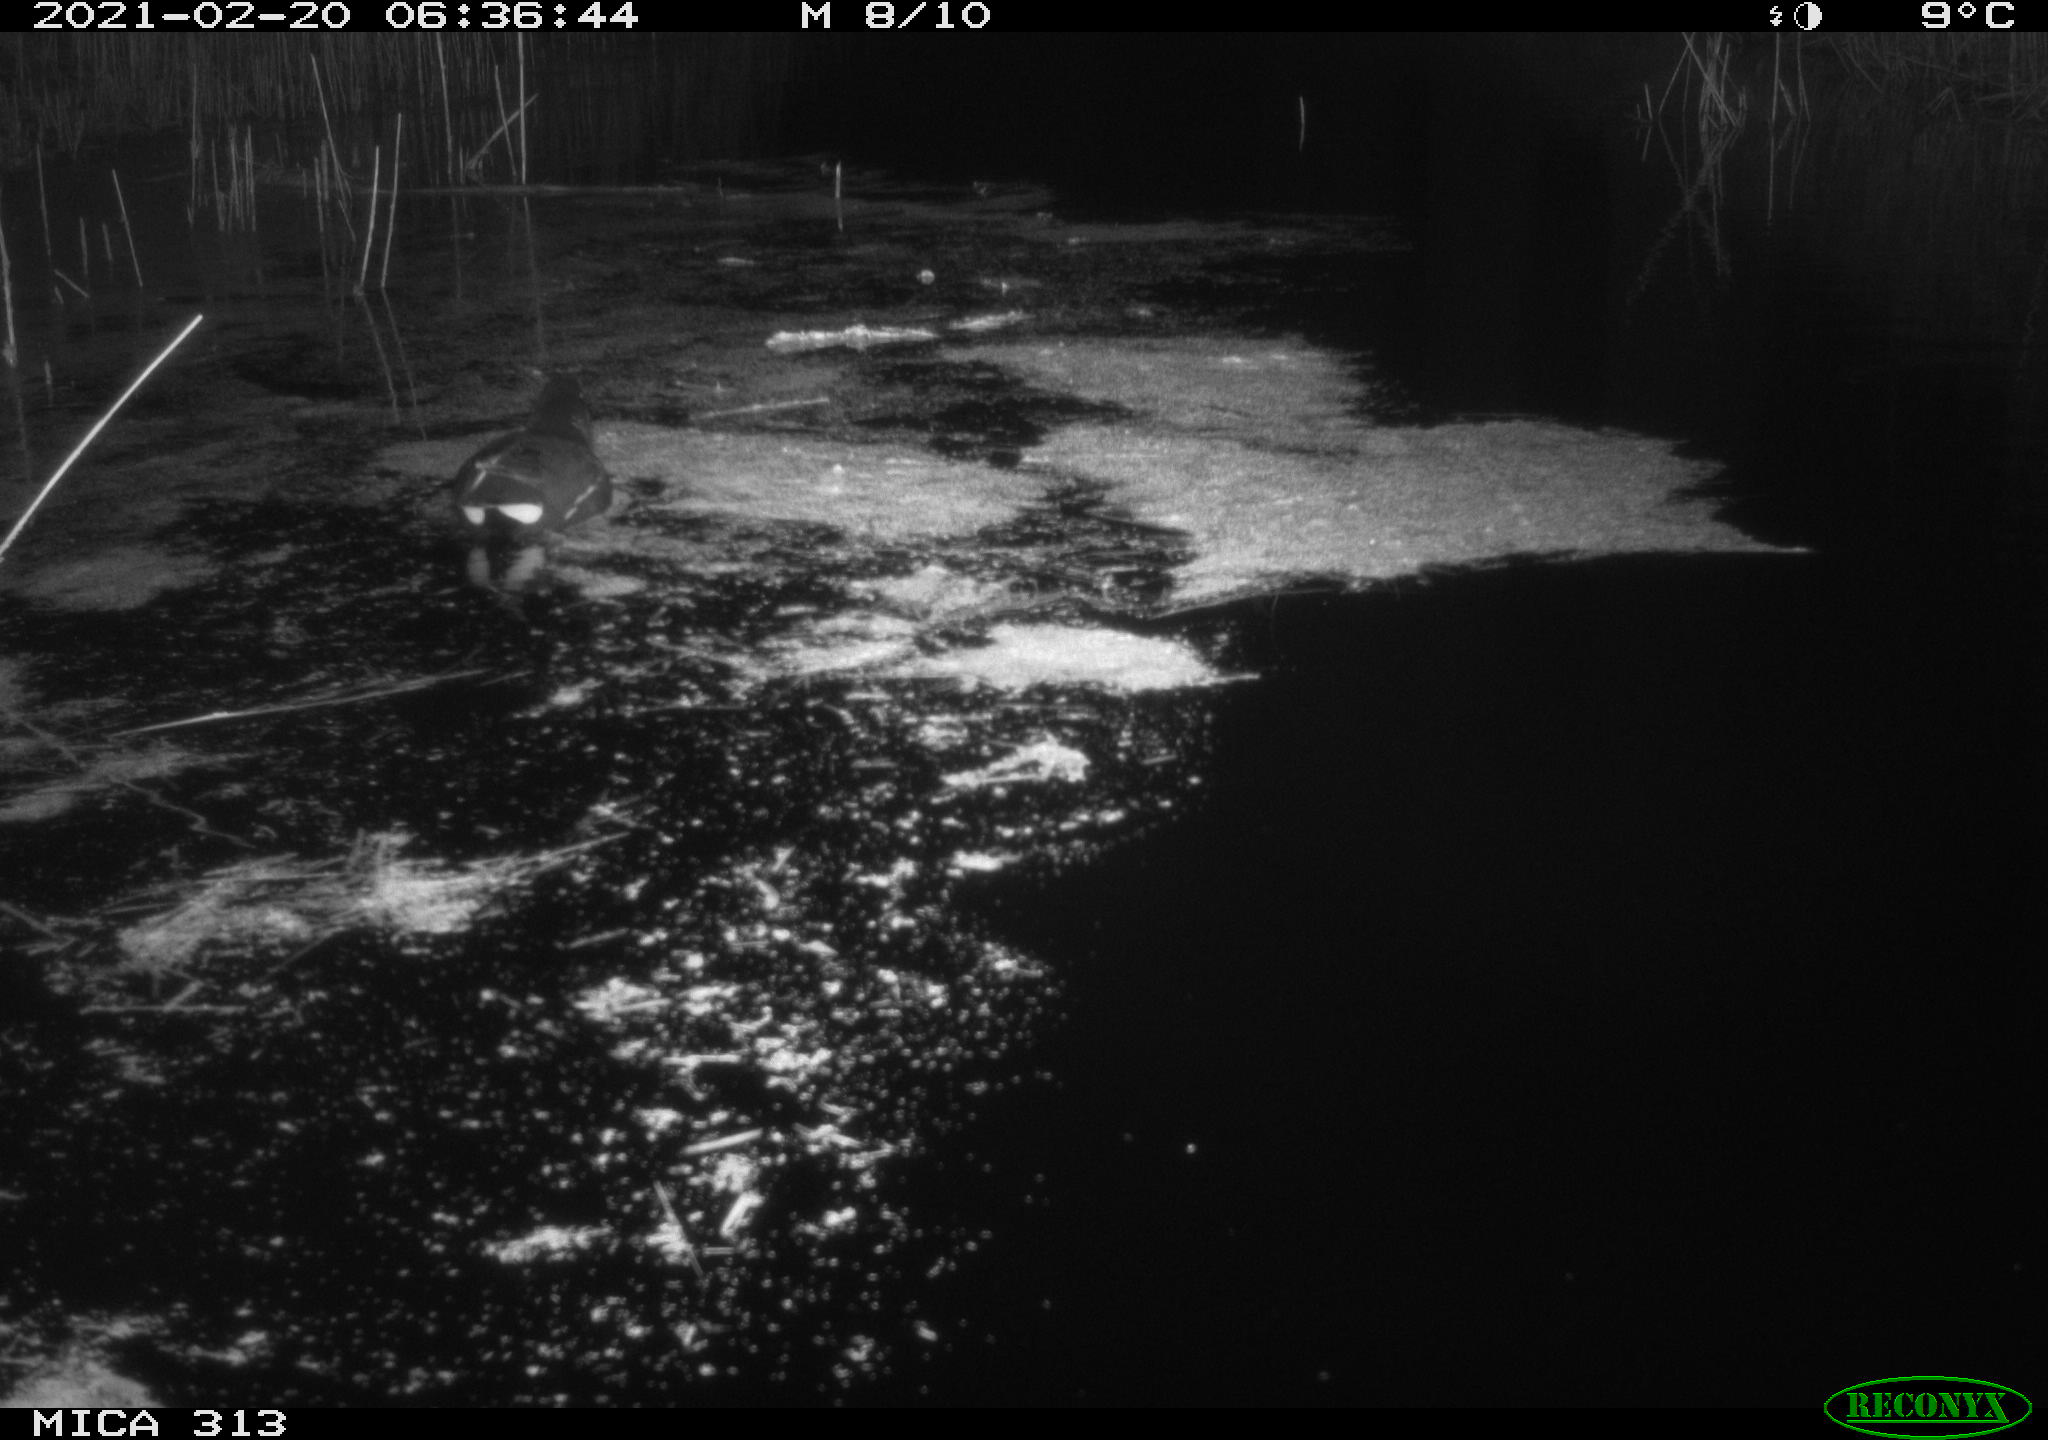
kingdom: Animalia
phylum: Chordata
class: Aves
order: Gruiformes
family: Rallidae
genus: Gallinula
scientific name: Gallinula chloropus
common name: Common moorhen
